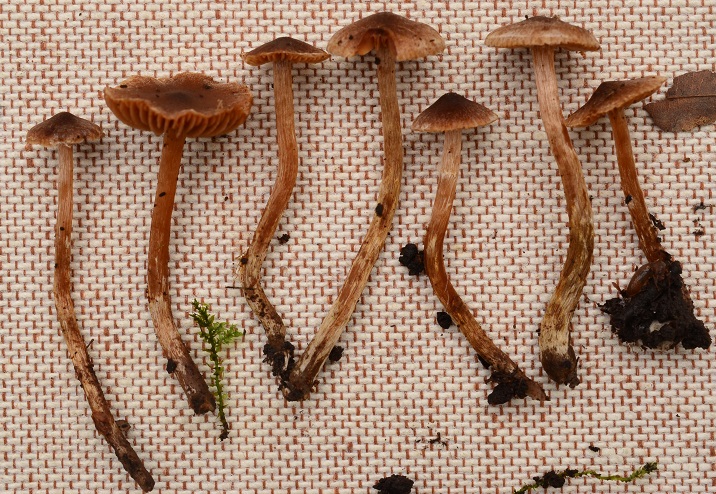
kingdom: Fungi
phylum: Basidiomycota
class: Agaricomycetes
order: Agaricales
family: Cortinariaceae
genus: Cortinarius
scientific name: Cortinarius scotoides
